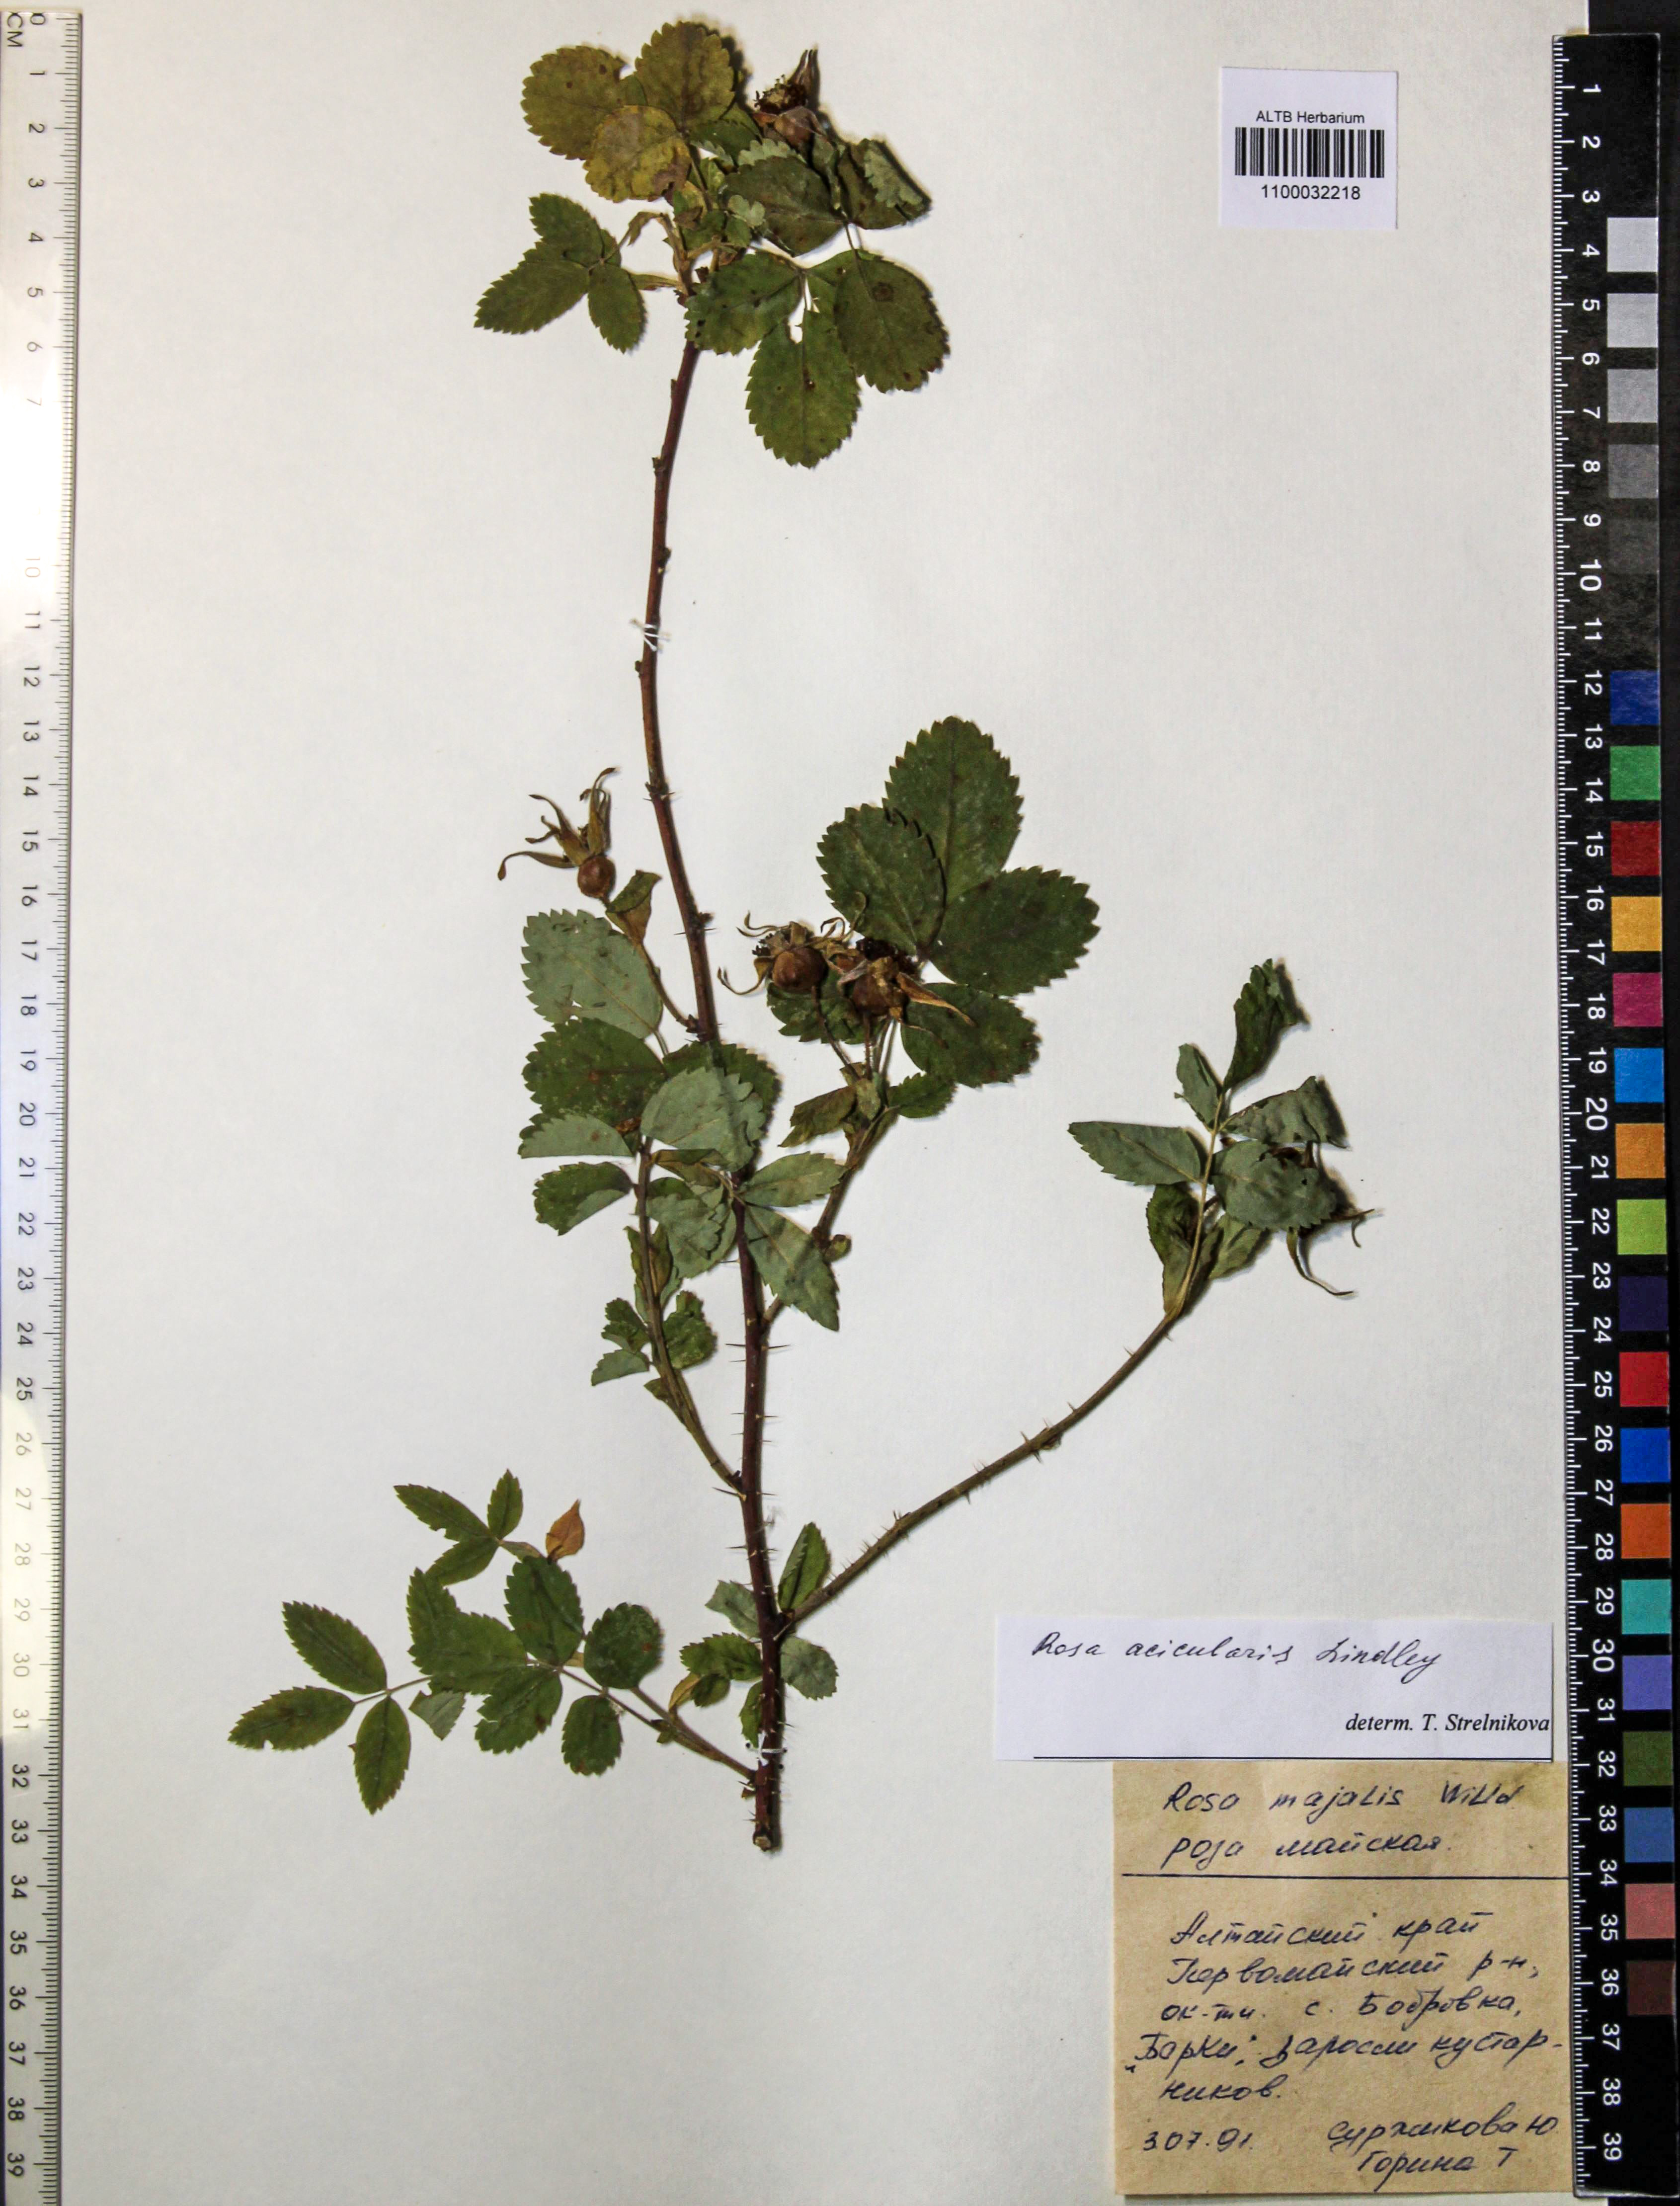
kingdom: Plantae
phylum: Tracheophyta
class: Magnoliopsida
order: Rosales
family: Rosaceae
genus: Rosa
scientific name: Rosa acicularis
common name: Prickly rose
